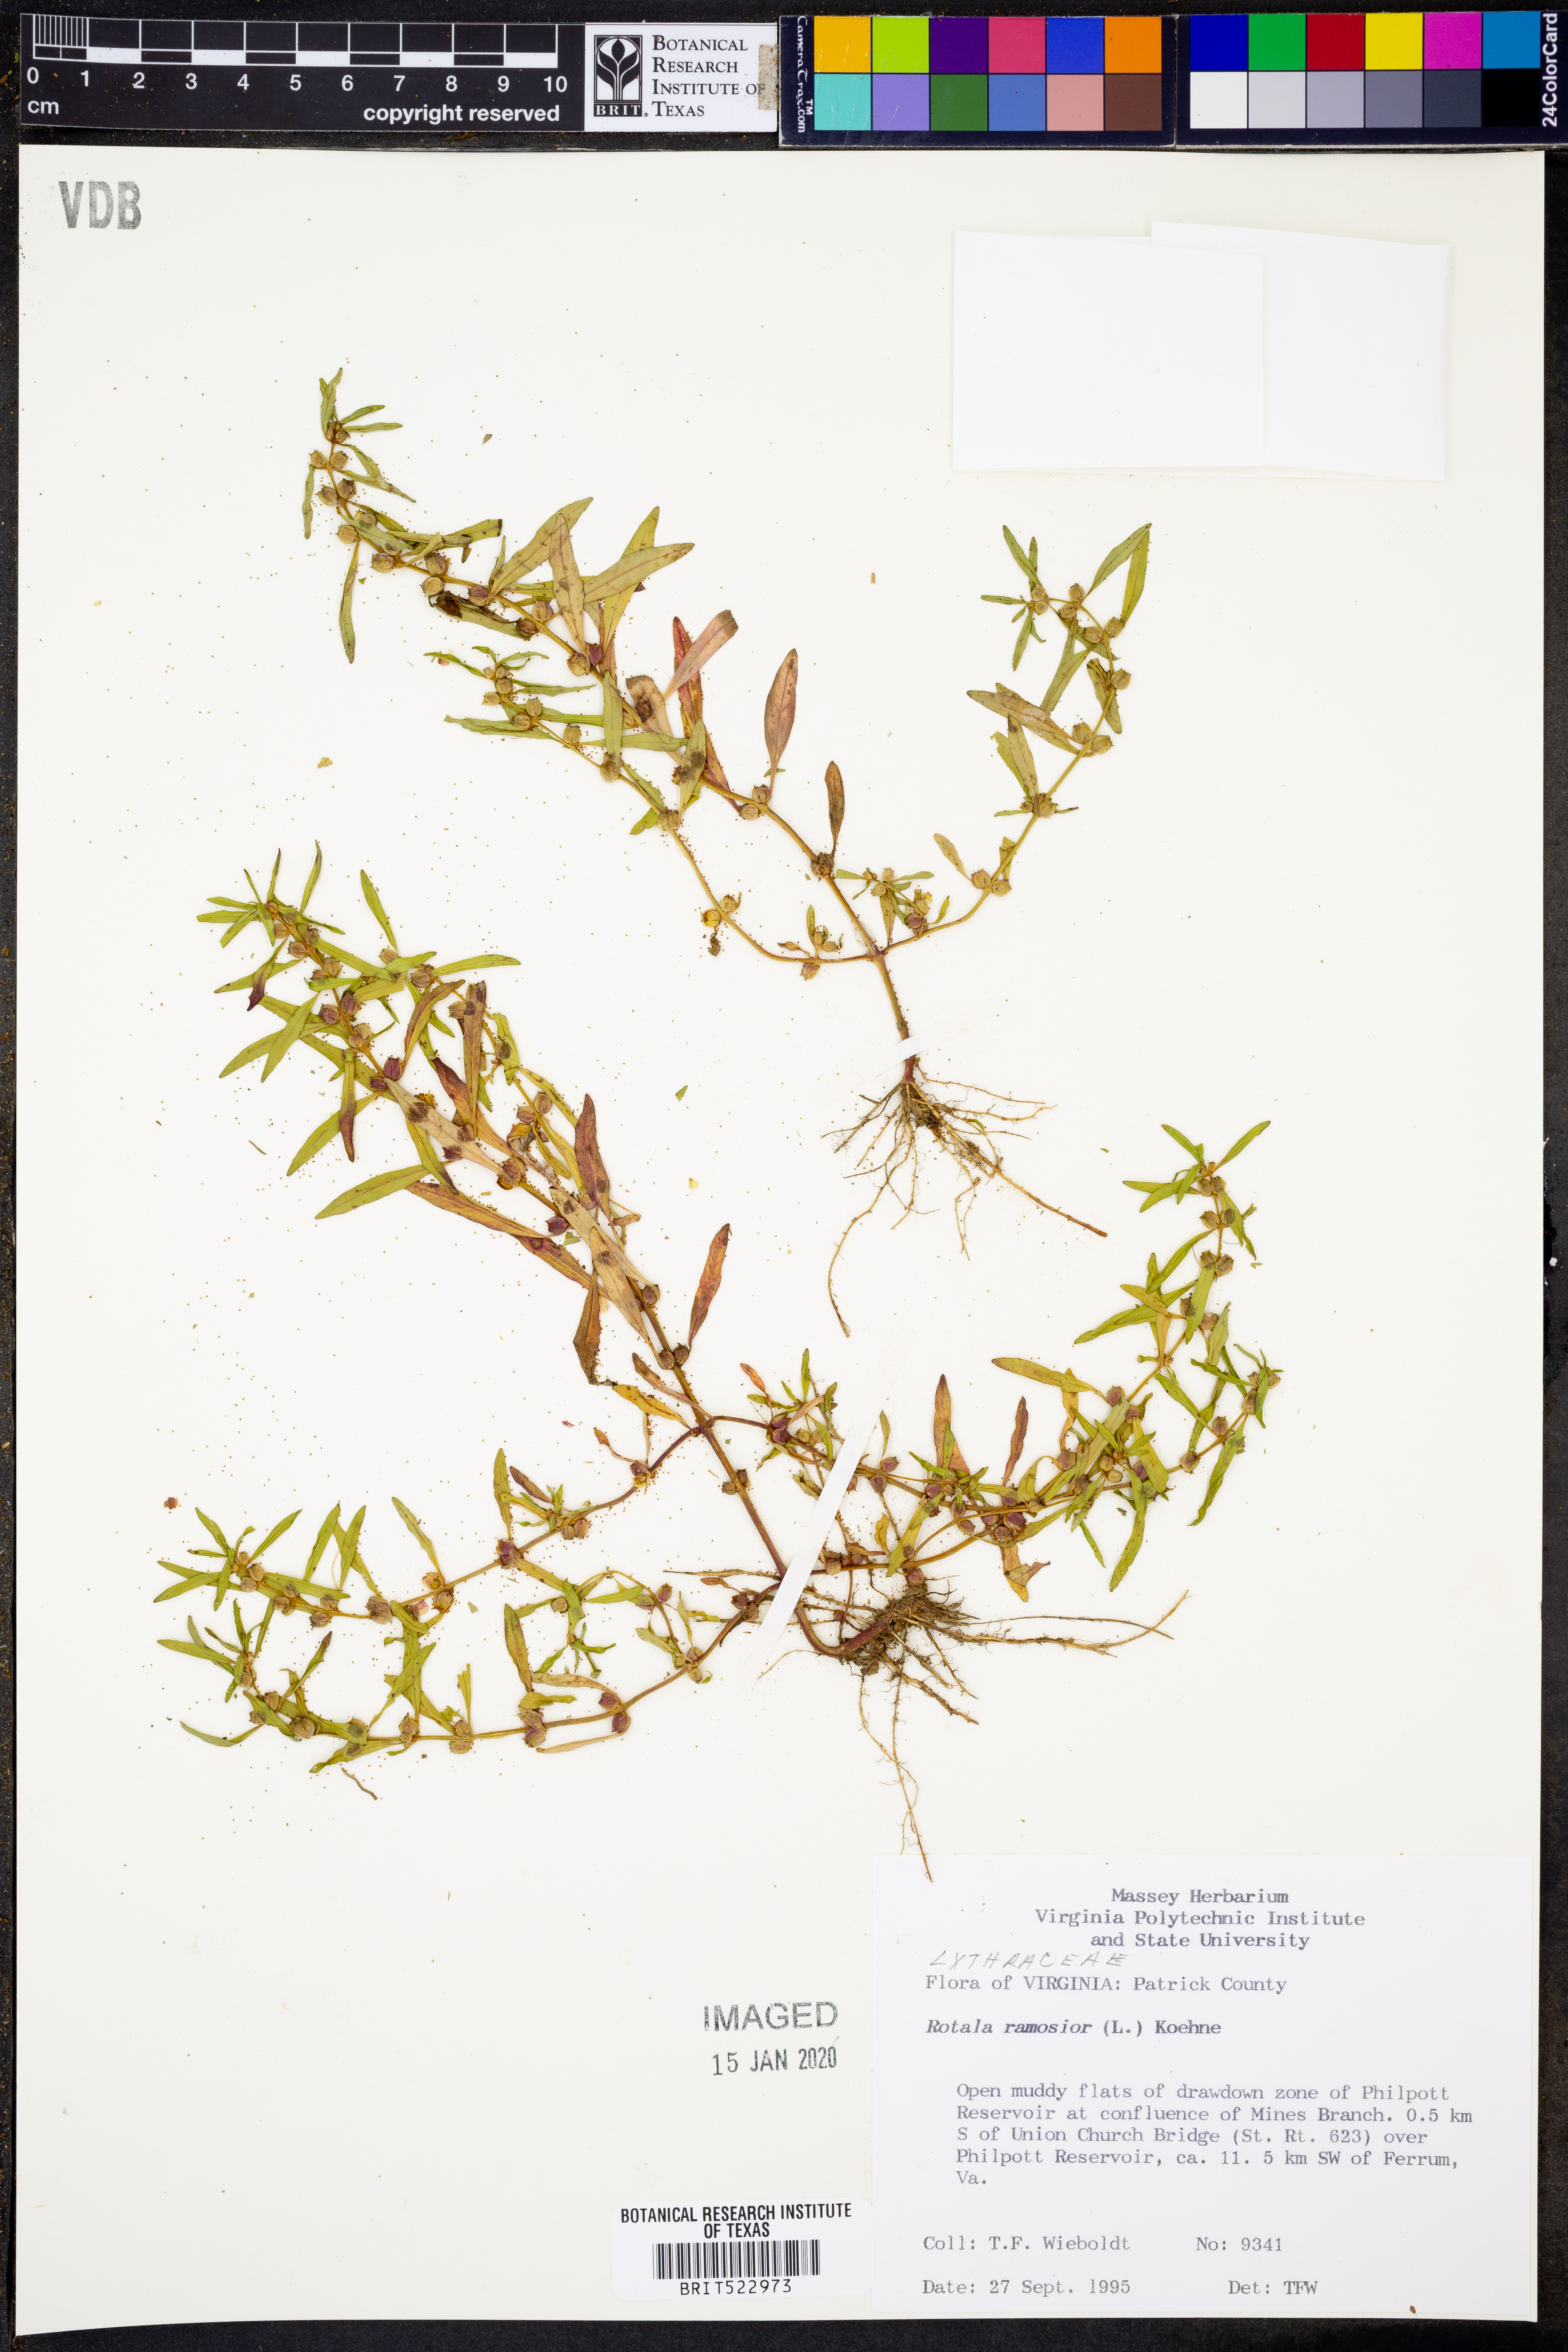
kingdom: Plantae
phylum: Tracheophyta
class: Magnoliopsida
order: Myrtales
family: Lythraceae
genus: Rotala
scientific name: Rotala ramosior
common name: Lowland rotala
